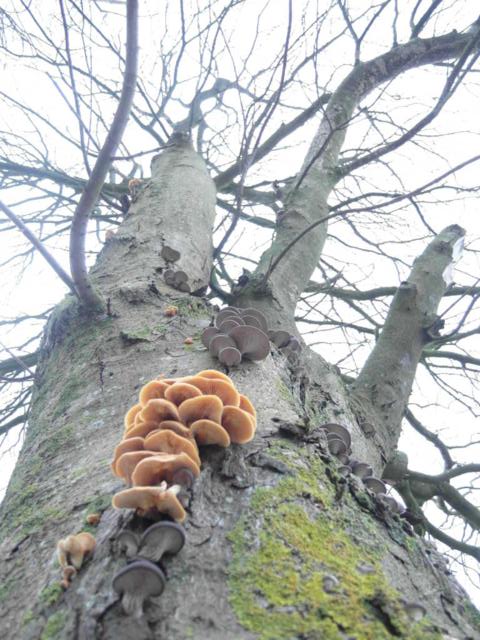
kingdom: Fungi
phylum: Basidiomycota
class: Agaricomycetes
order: Agaricales
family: Pleurotaceae
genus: Pleurotus
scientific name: Pleurotus ostreatus
